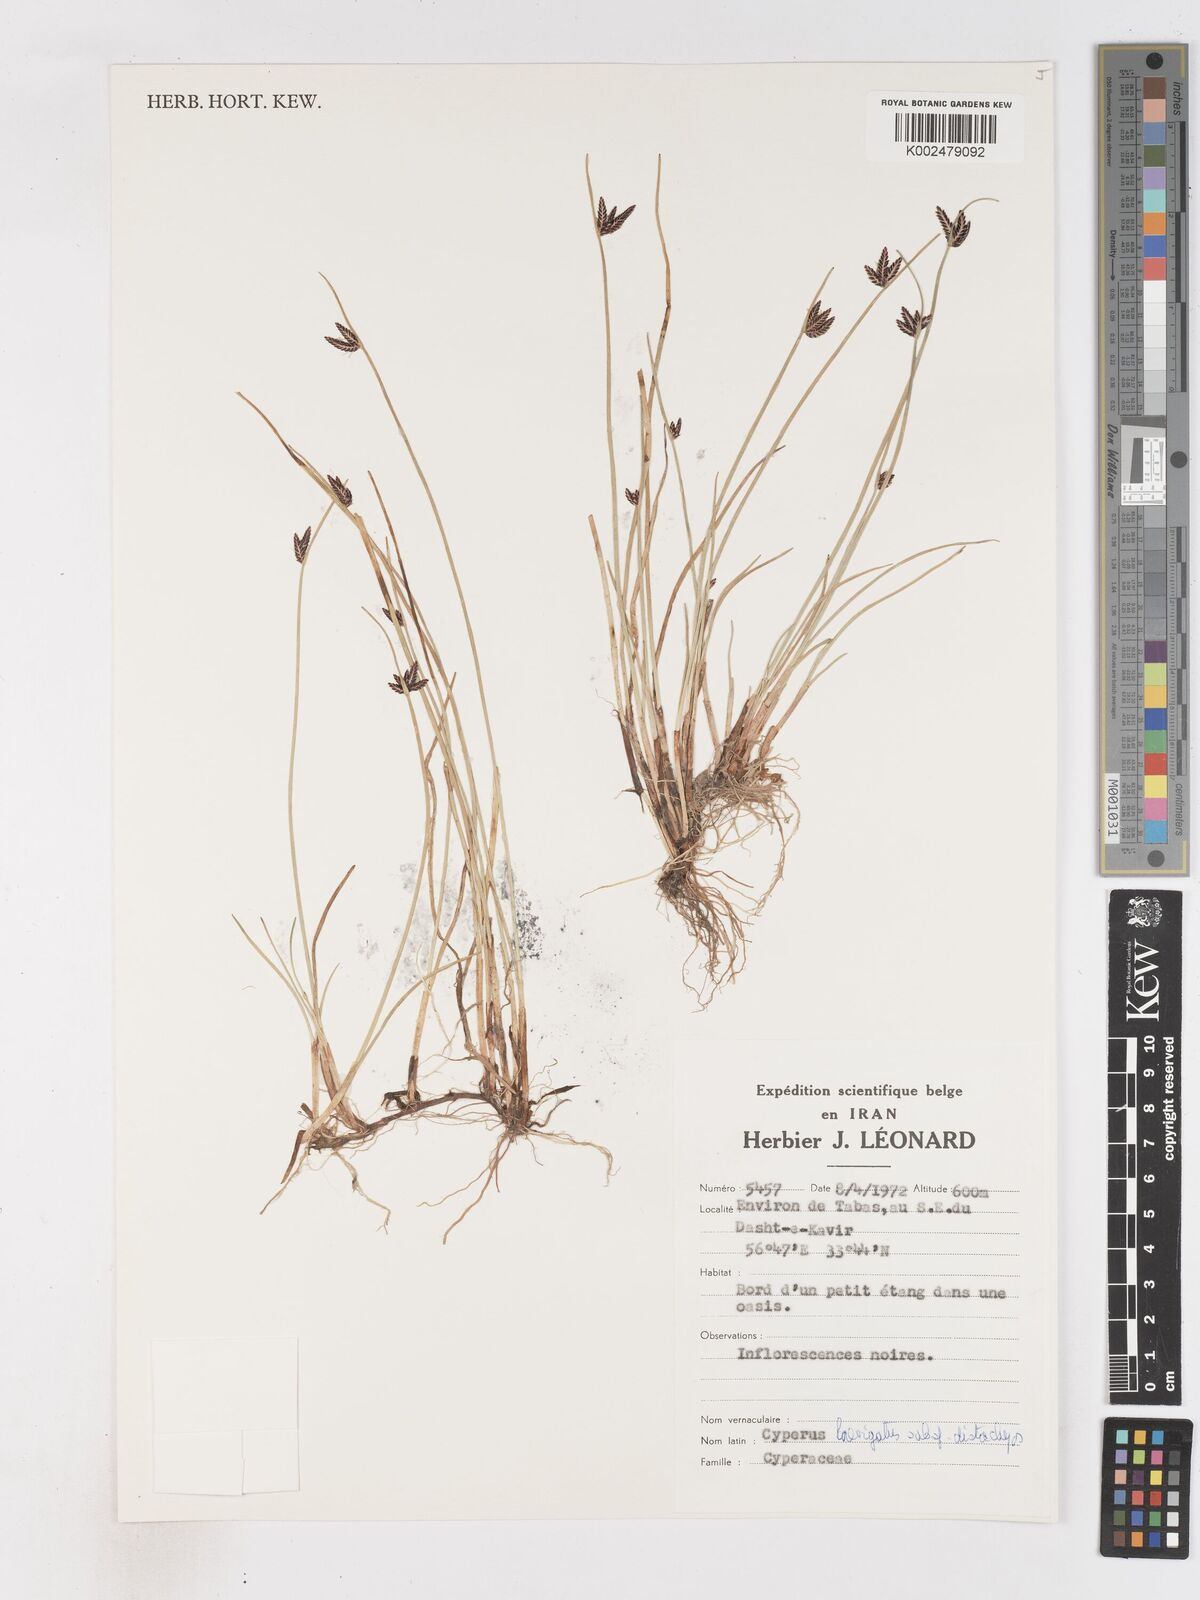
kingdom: Plantae
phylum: Tracheophyta
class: Liliopsida
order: Poales
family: Cyperaceae
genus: Cyperus
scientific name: Cyperus laevigatus
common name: Smooth flat sedge
